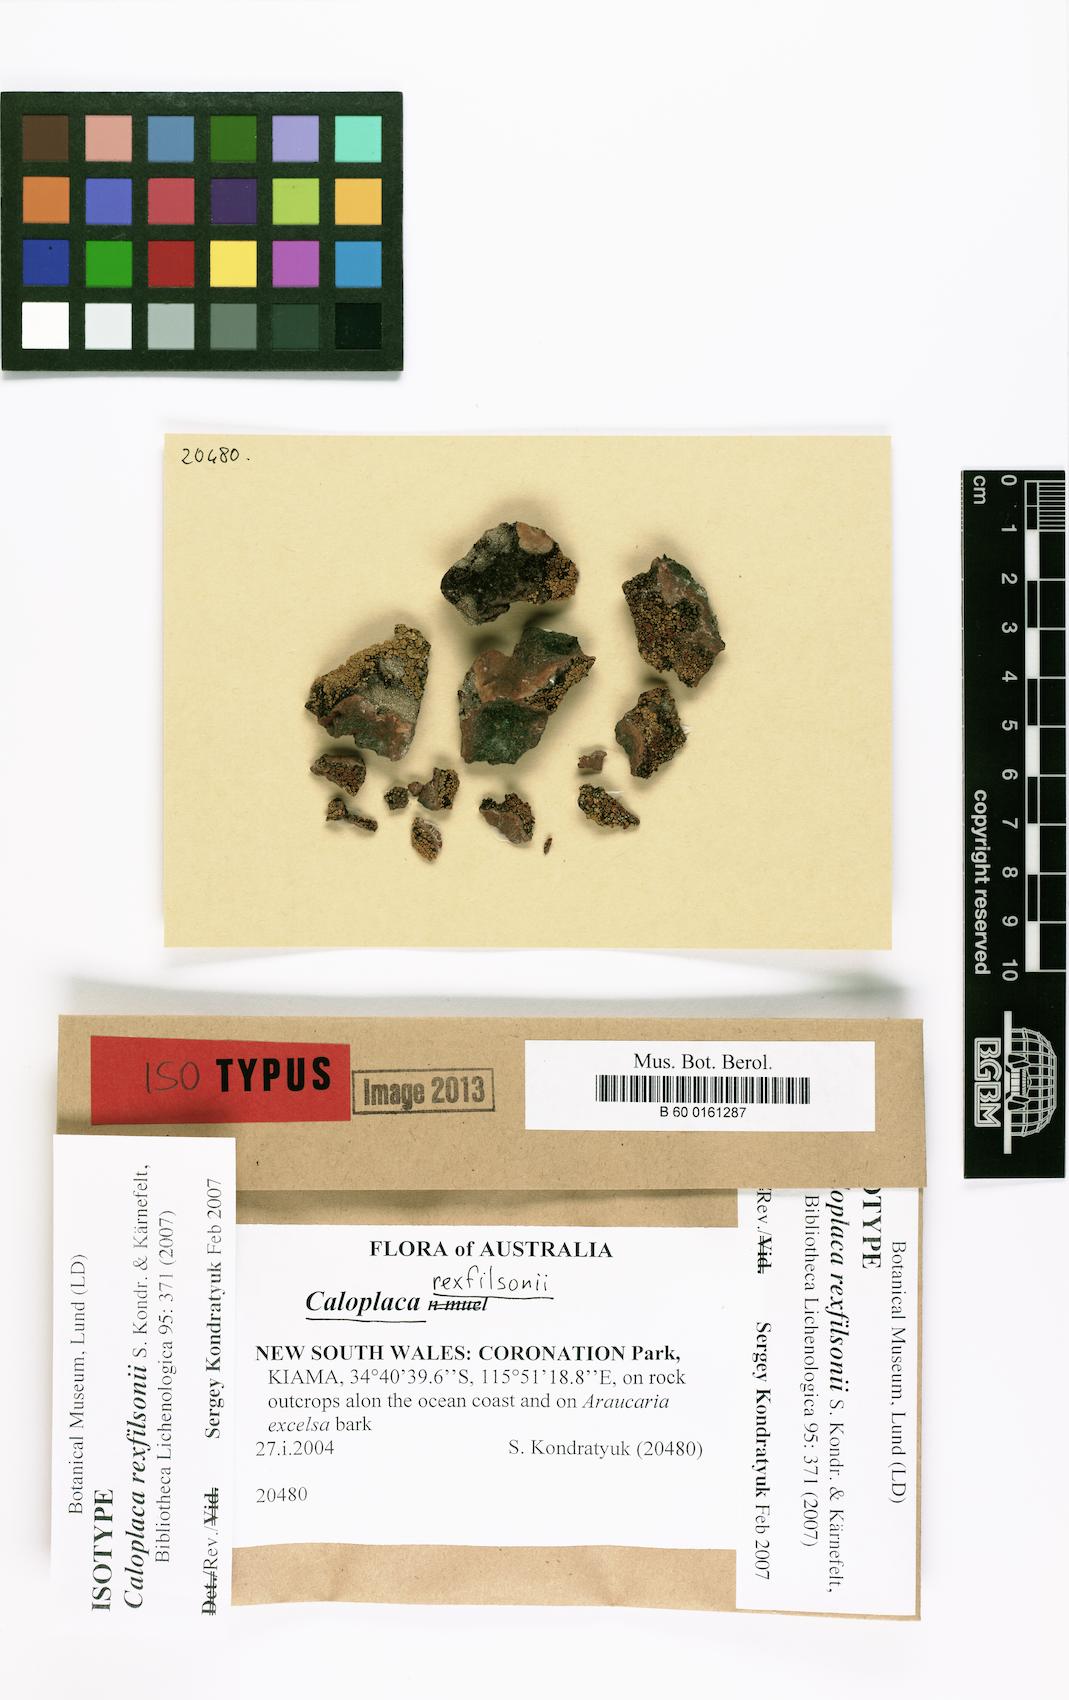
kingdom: Fungi
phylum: Ascomycota
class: Lecanoromycetes
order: Teloschistales
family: Teloschistaceae
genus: Filsoniana
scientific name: Filsoniana rexfilsonii
